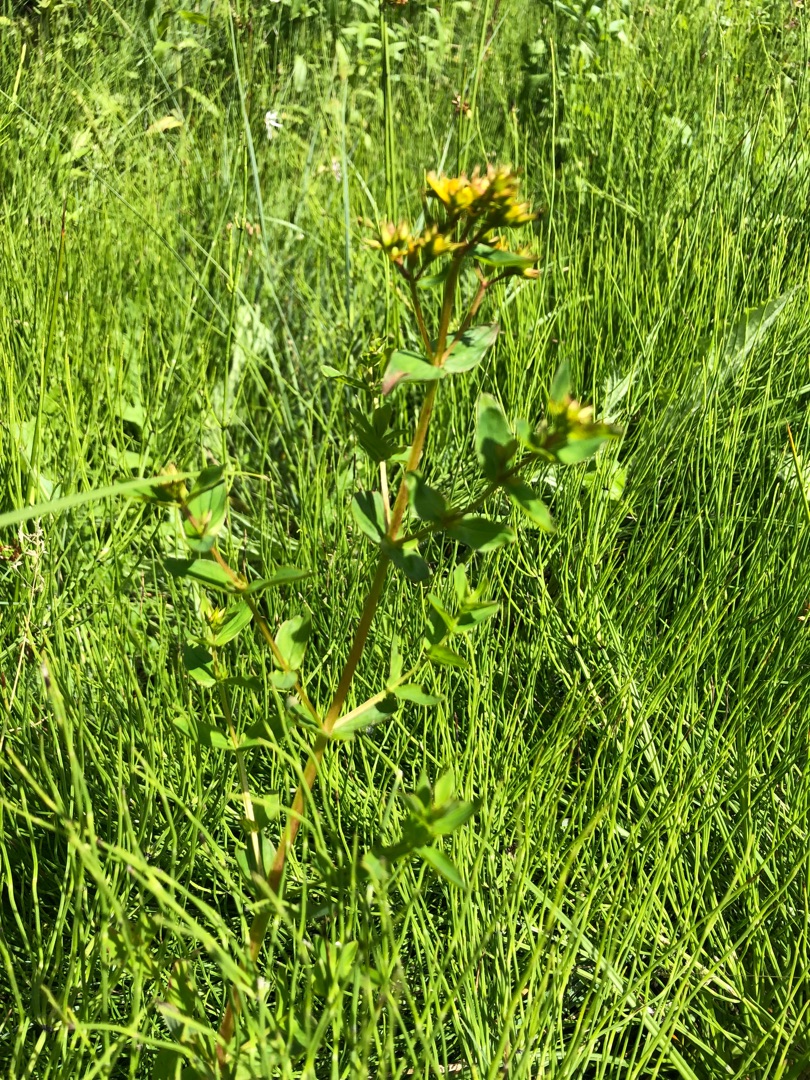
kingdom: Plantae
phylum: Tracheophyta
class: Magnoliopsida
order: Malpighiales
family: Hypericaceae
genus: Hypericum
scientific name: Hypericum tetrapterum
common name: Vinget perikon
